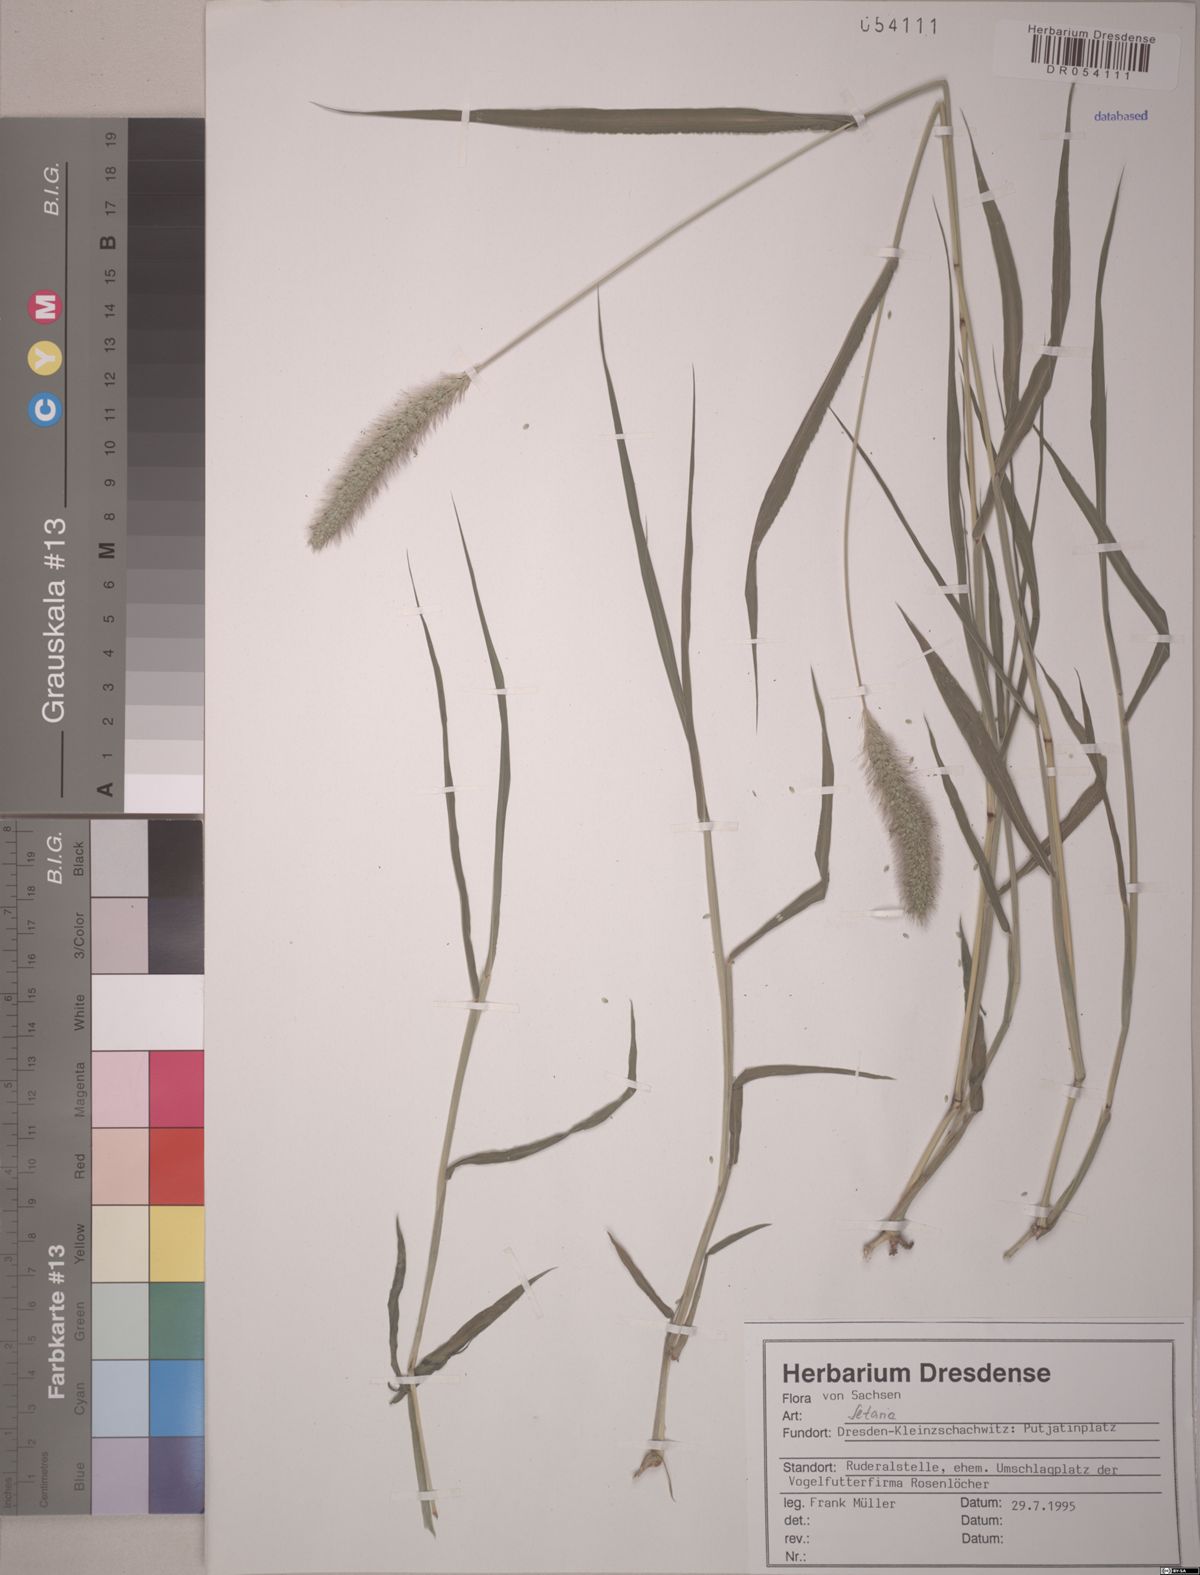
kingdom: Plantae
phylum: Tracheophyta
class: Liliopsida
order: Poales
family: Poaceae
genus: Setaria
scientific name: Setaria
